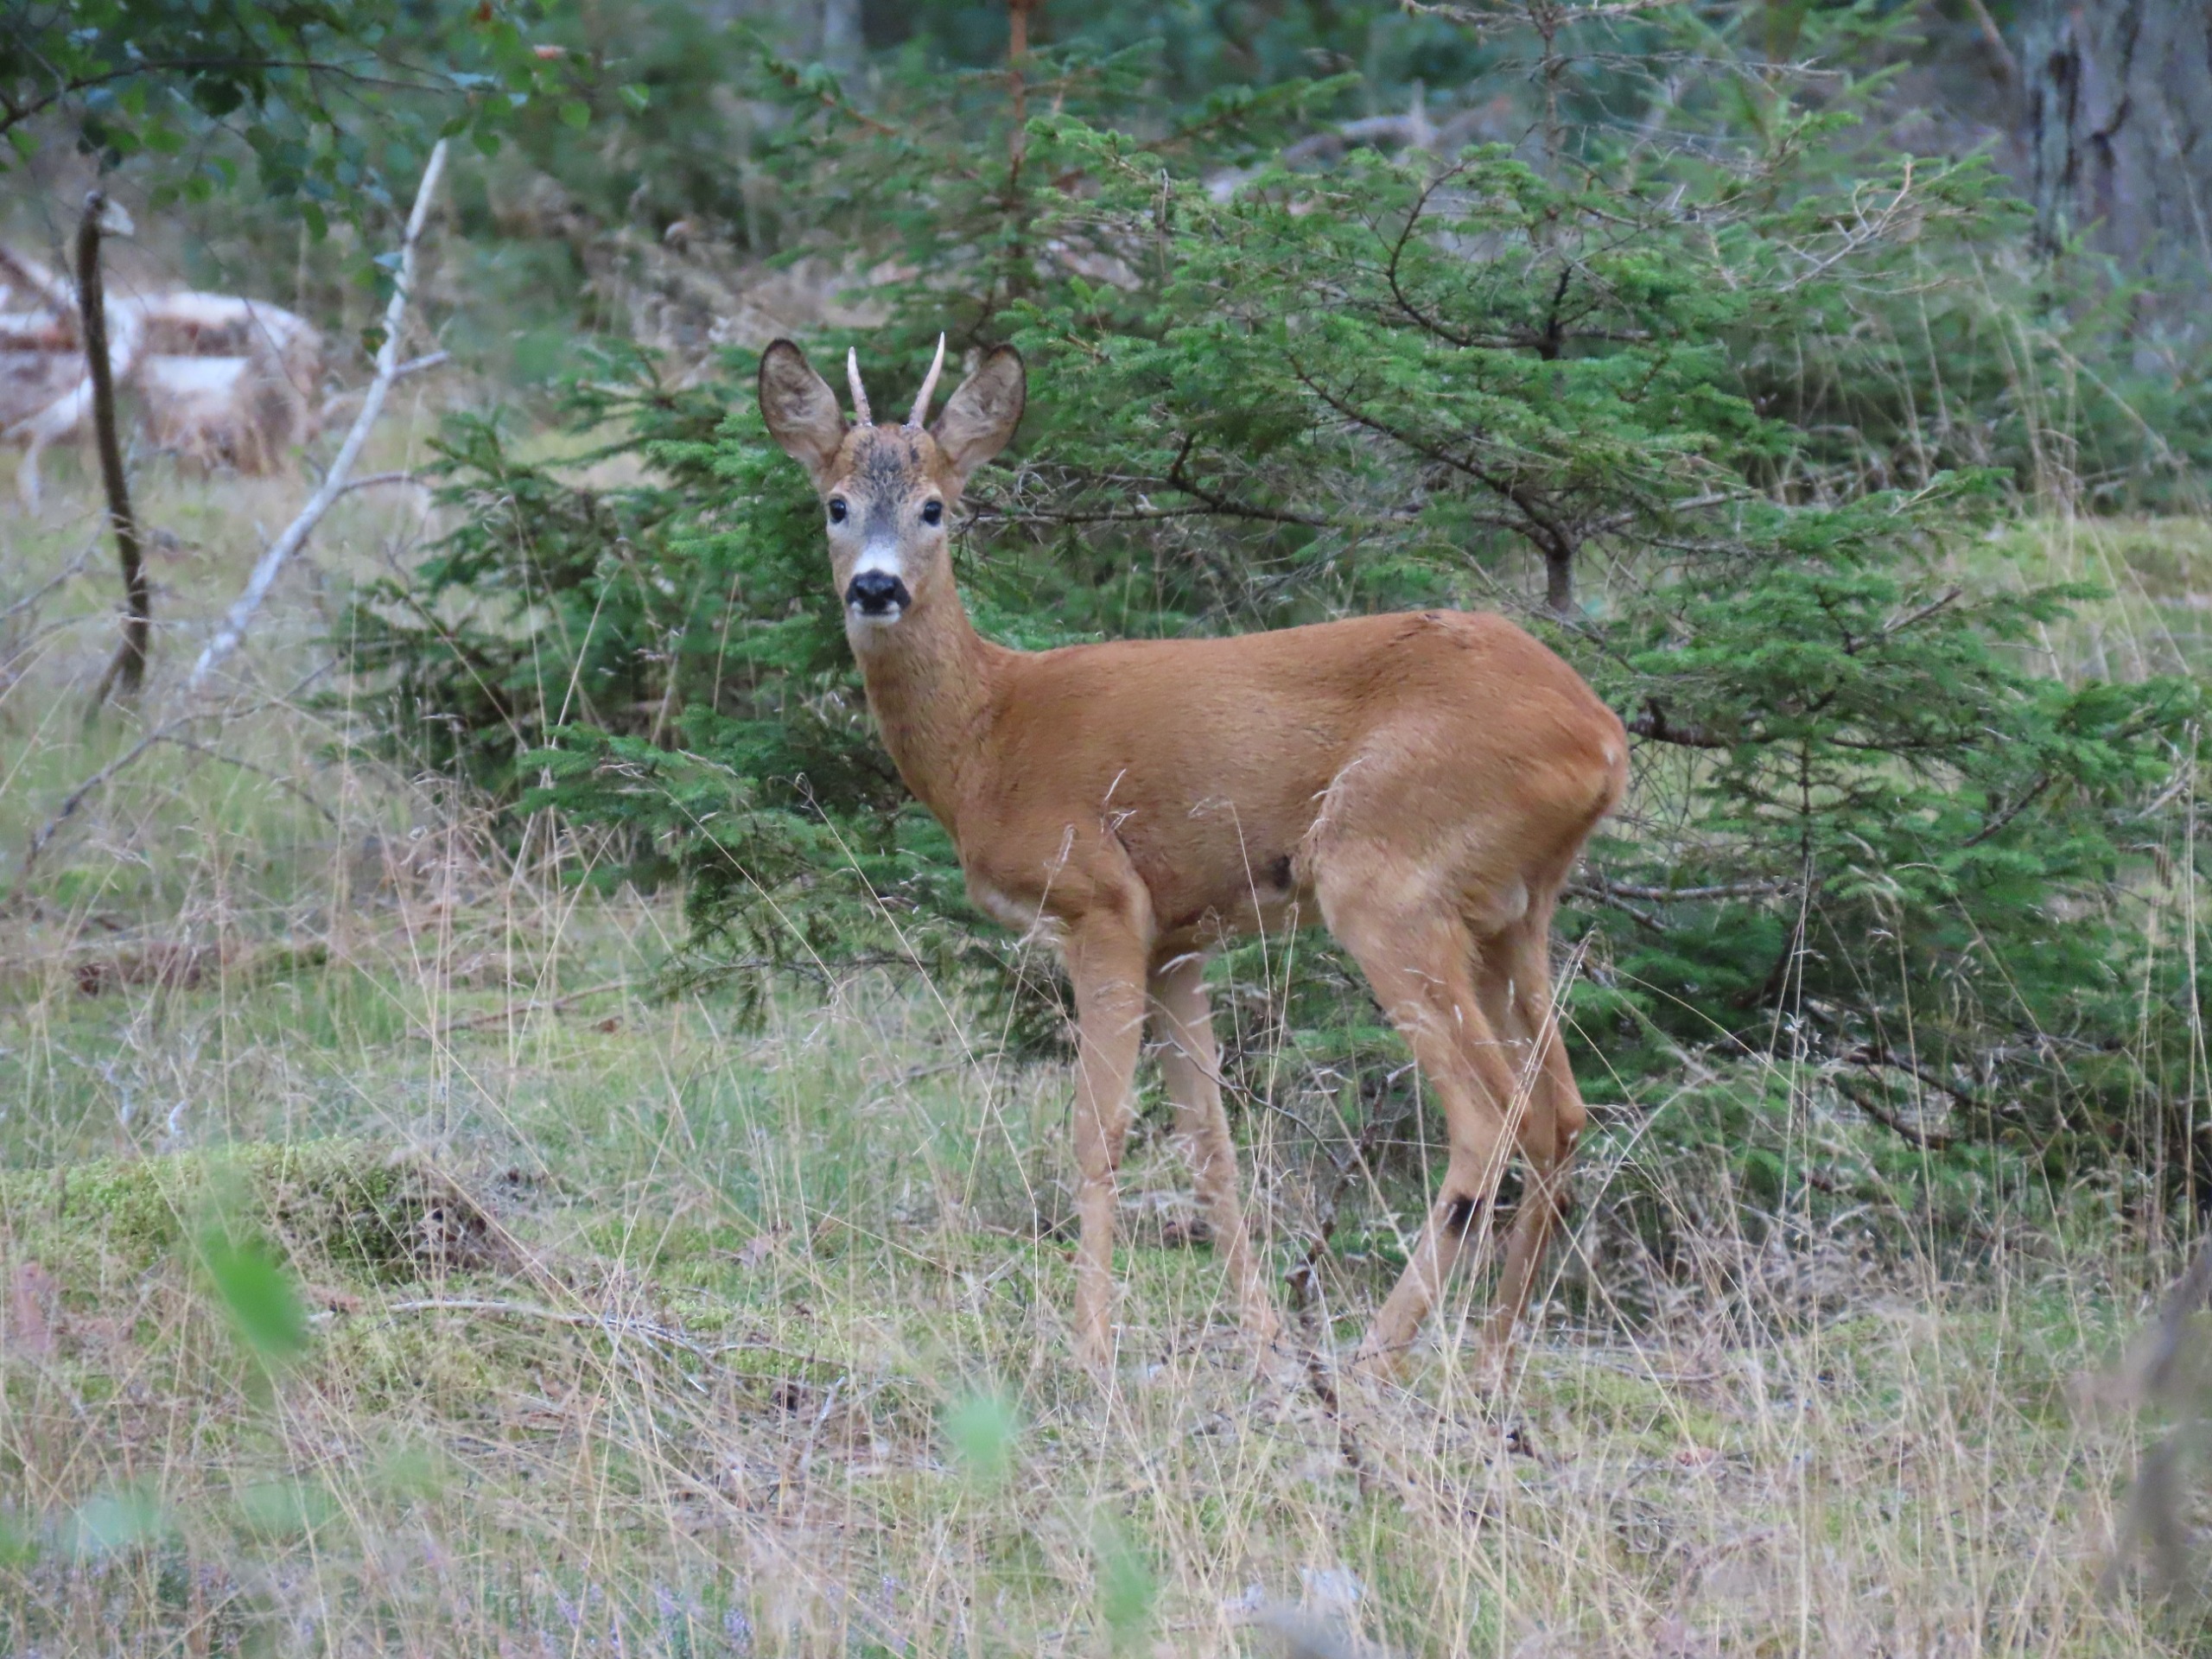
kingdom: Animalia
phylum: Chordata
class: Mammalia
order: Artiodactyla
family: Cervidae
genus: Capreolus
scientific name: Capreolus capreolus
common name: Rådyr
